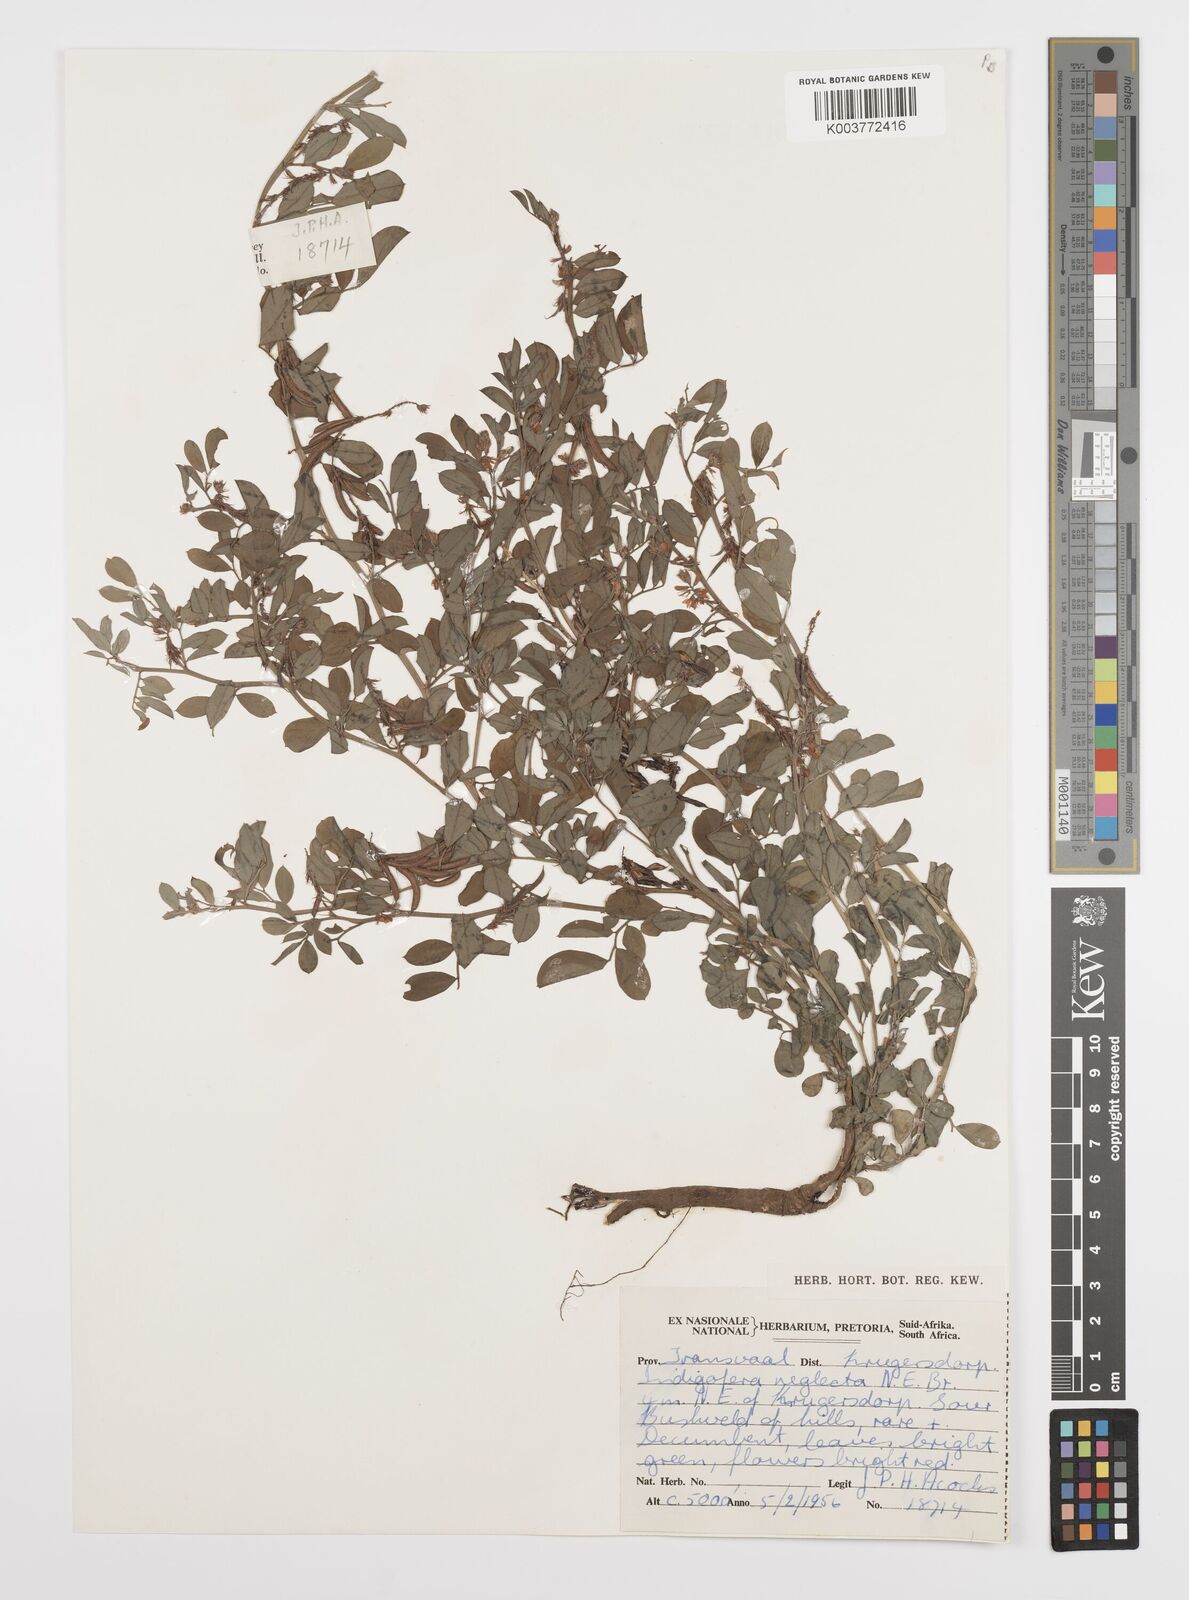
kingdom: Plantae
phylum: Tracheophyta
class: Magnoliopsida
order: Fabales
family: Fabaceae
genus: Indigofera
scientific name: Indigofera oxalidea
